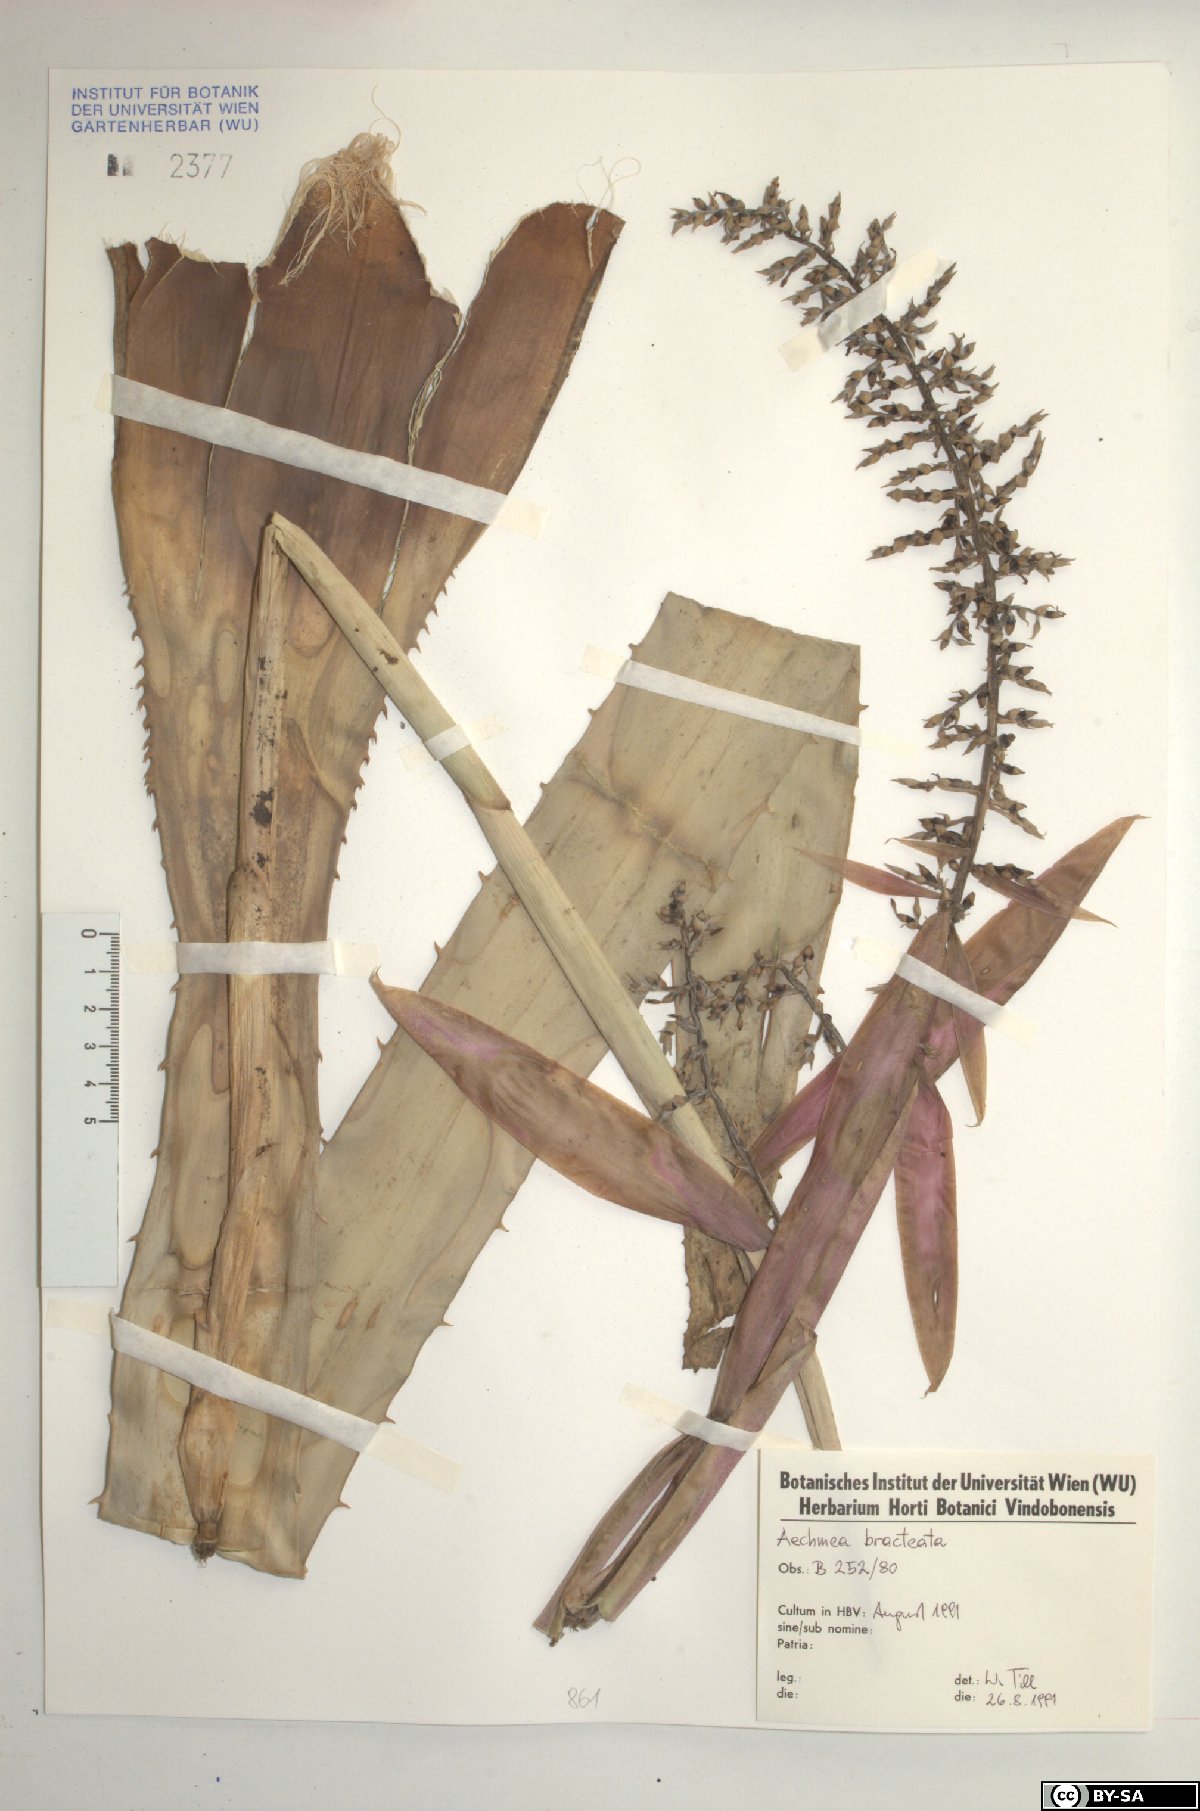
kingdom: Plantae
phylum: Tracheophyta
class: Liliopsida
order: Poales
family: Bromeliaceae
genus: Aechmea
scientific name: Aechmea bracteata
